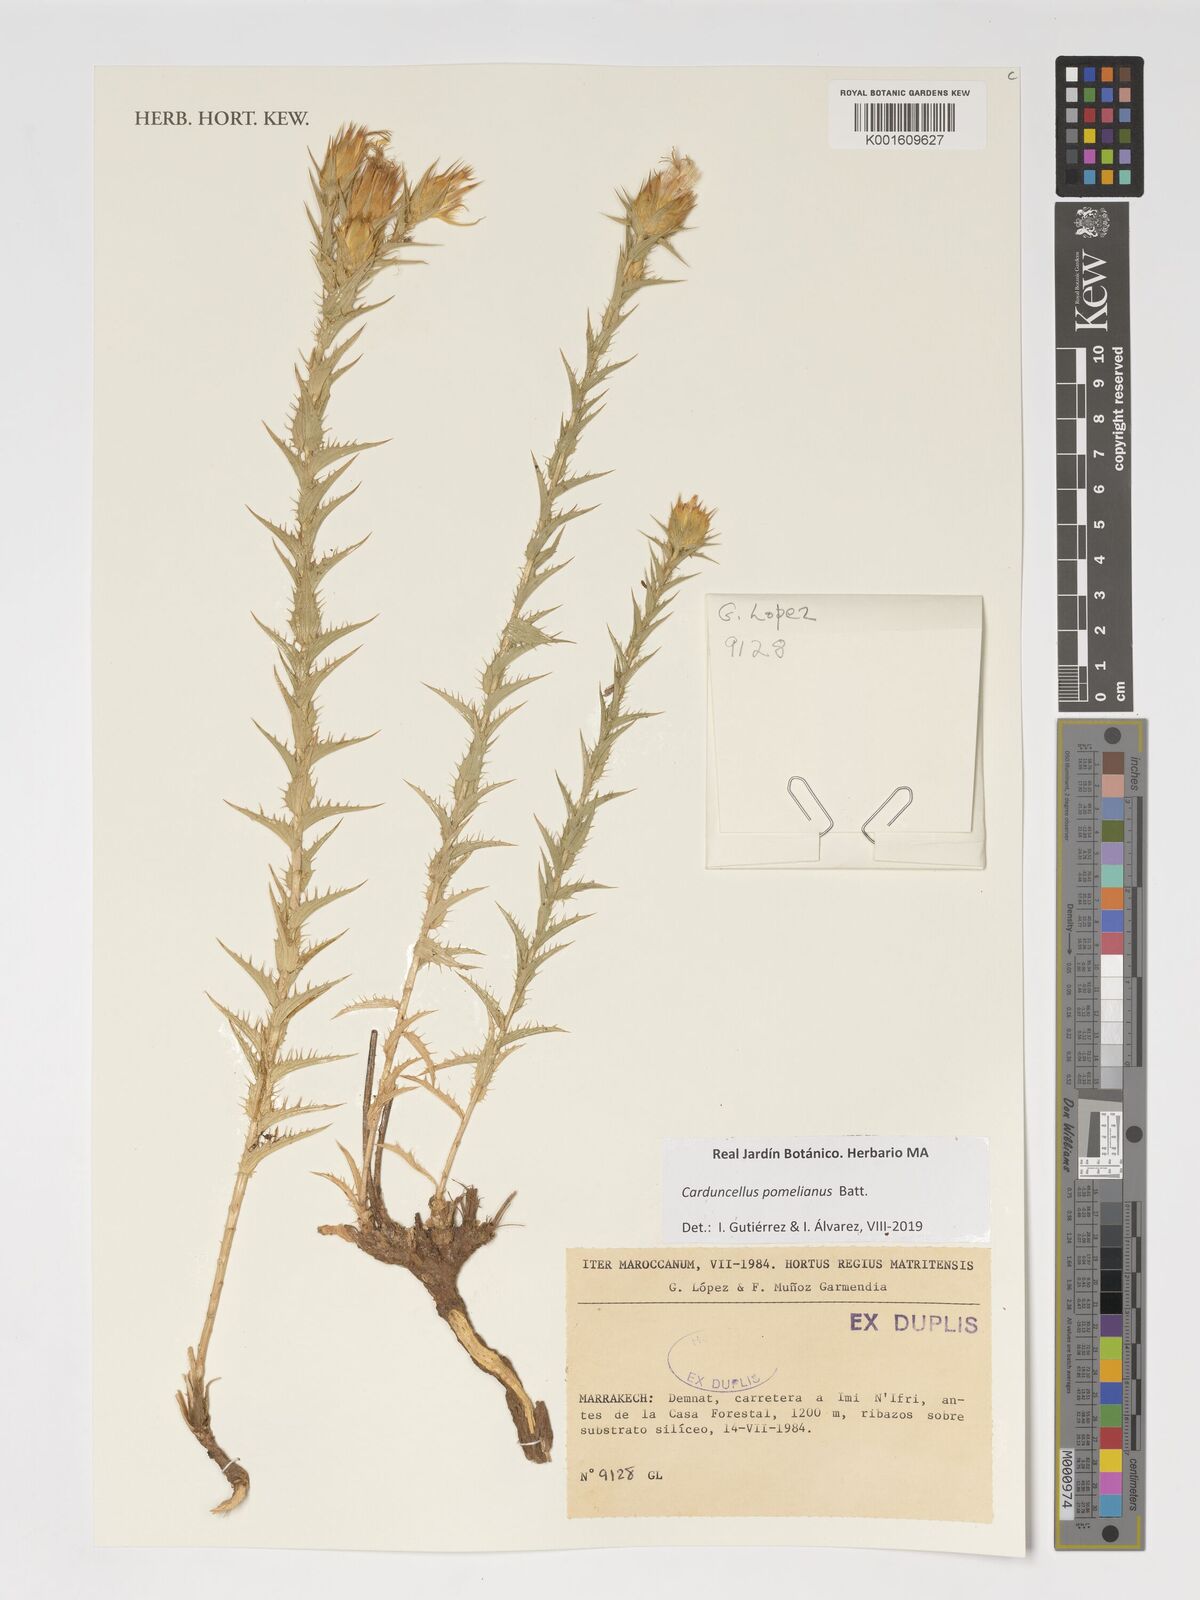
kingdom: Plantae
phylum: Tracheophyta
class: Magnoliopsida
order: Asterales
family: Asteraceae
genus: Carduncellus
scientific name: Carduncellus pomelianus
